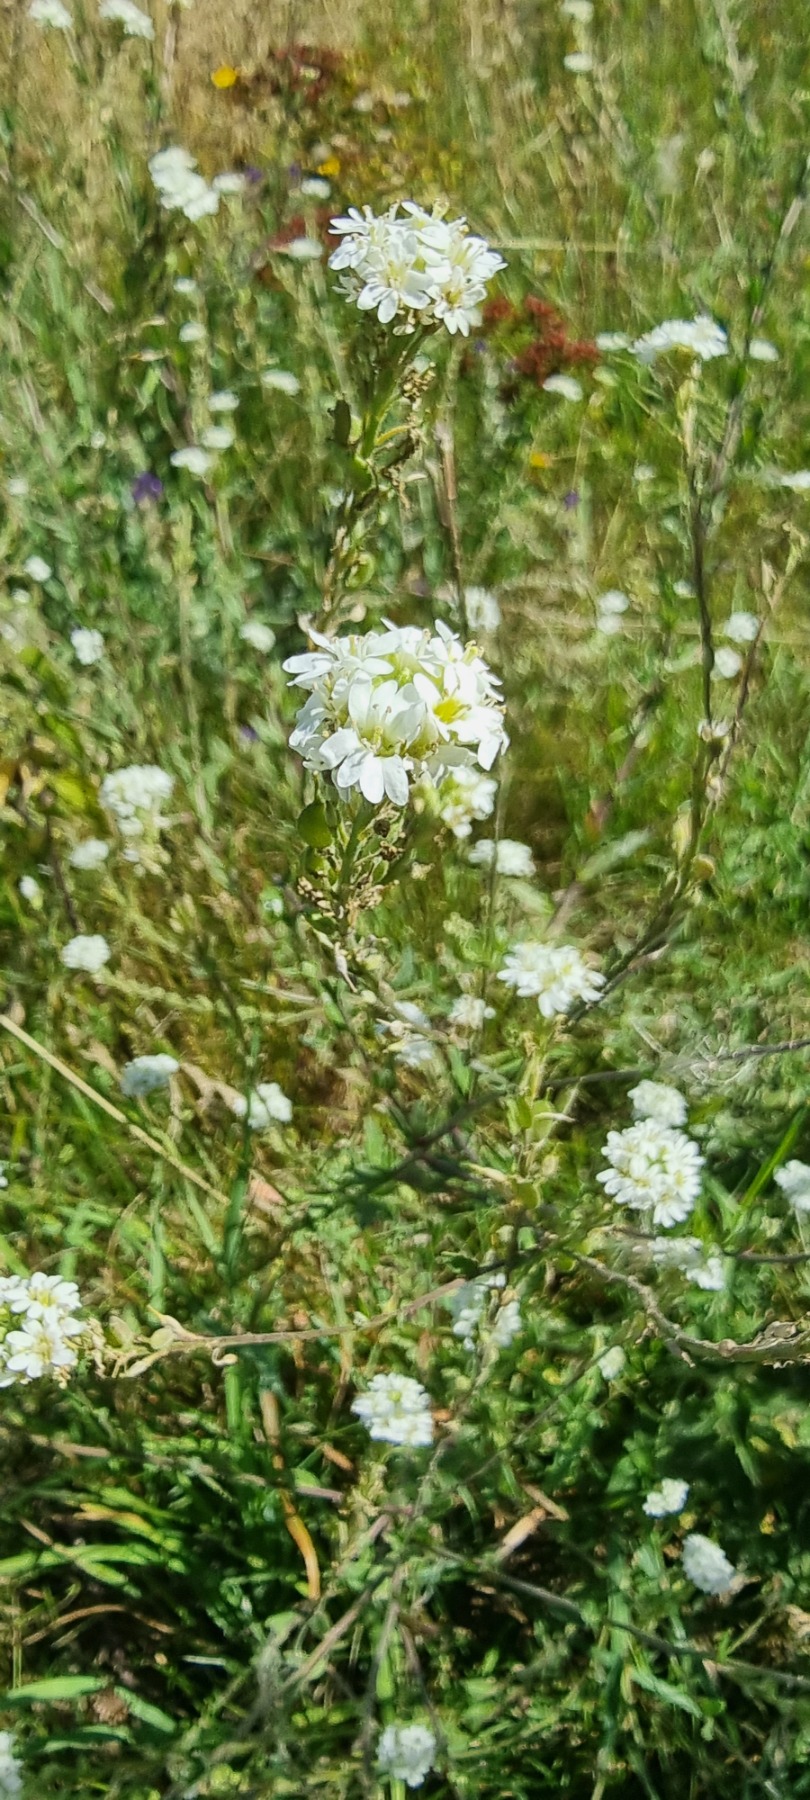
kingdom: Plantae
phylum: Tracheophyta
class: Magnoliopsida
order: Brassicales
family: Brassicaceae
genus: Berteroa
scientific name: Berteroa incana
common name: Kløvplade
